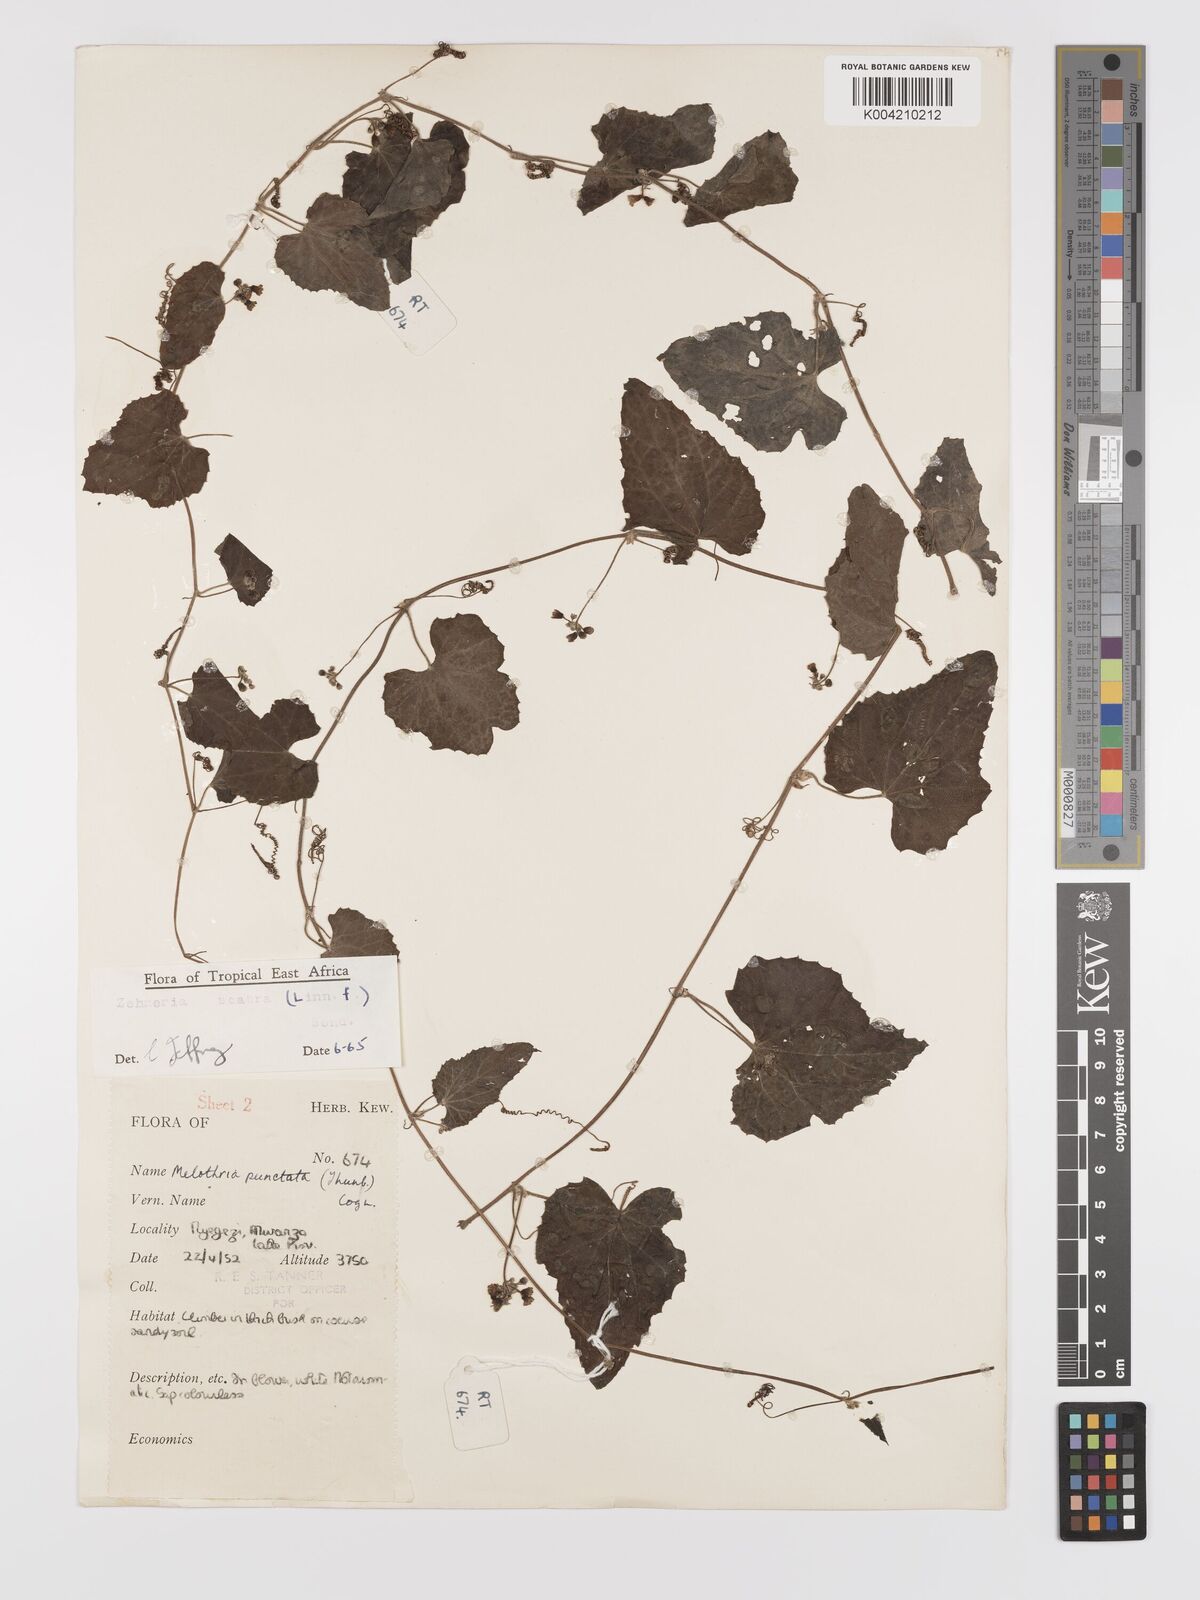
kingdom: Plantae
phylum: Tracheophyta
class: Magnoliopsida
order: Cucurbitales
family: Cucurbitaceae
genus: Zehneria
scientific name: Zehneria scabra
